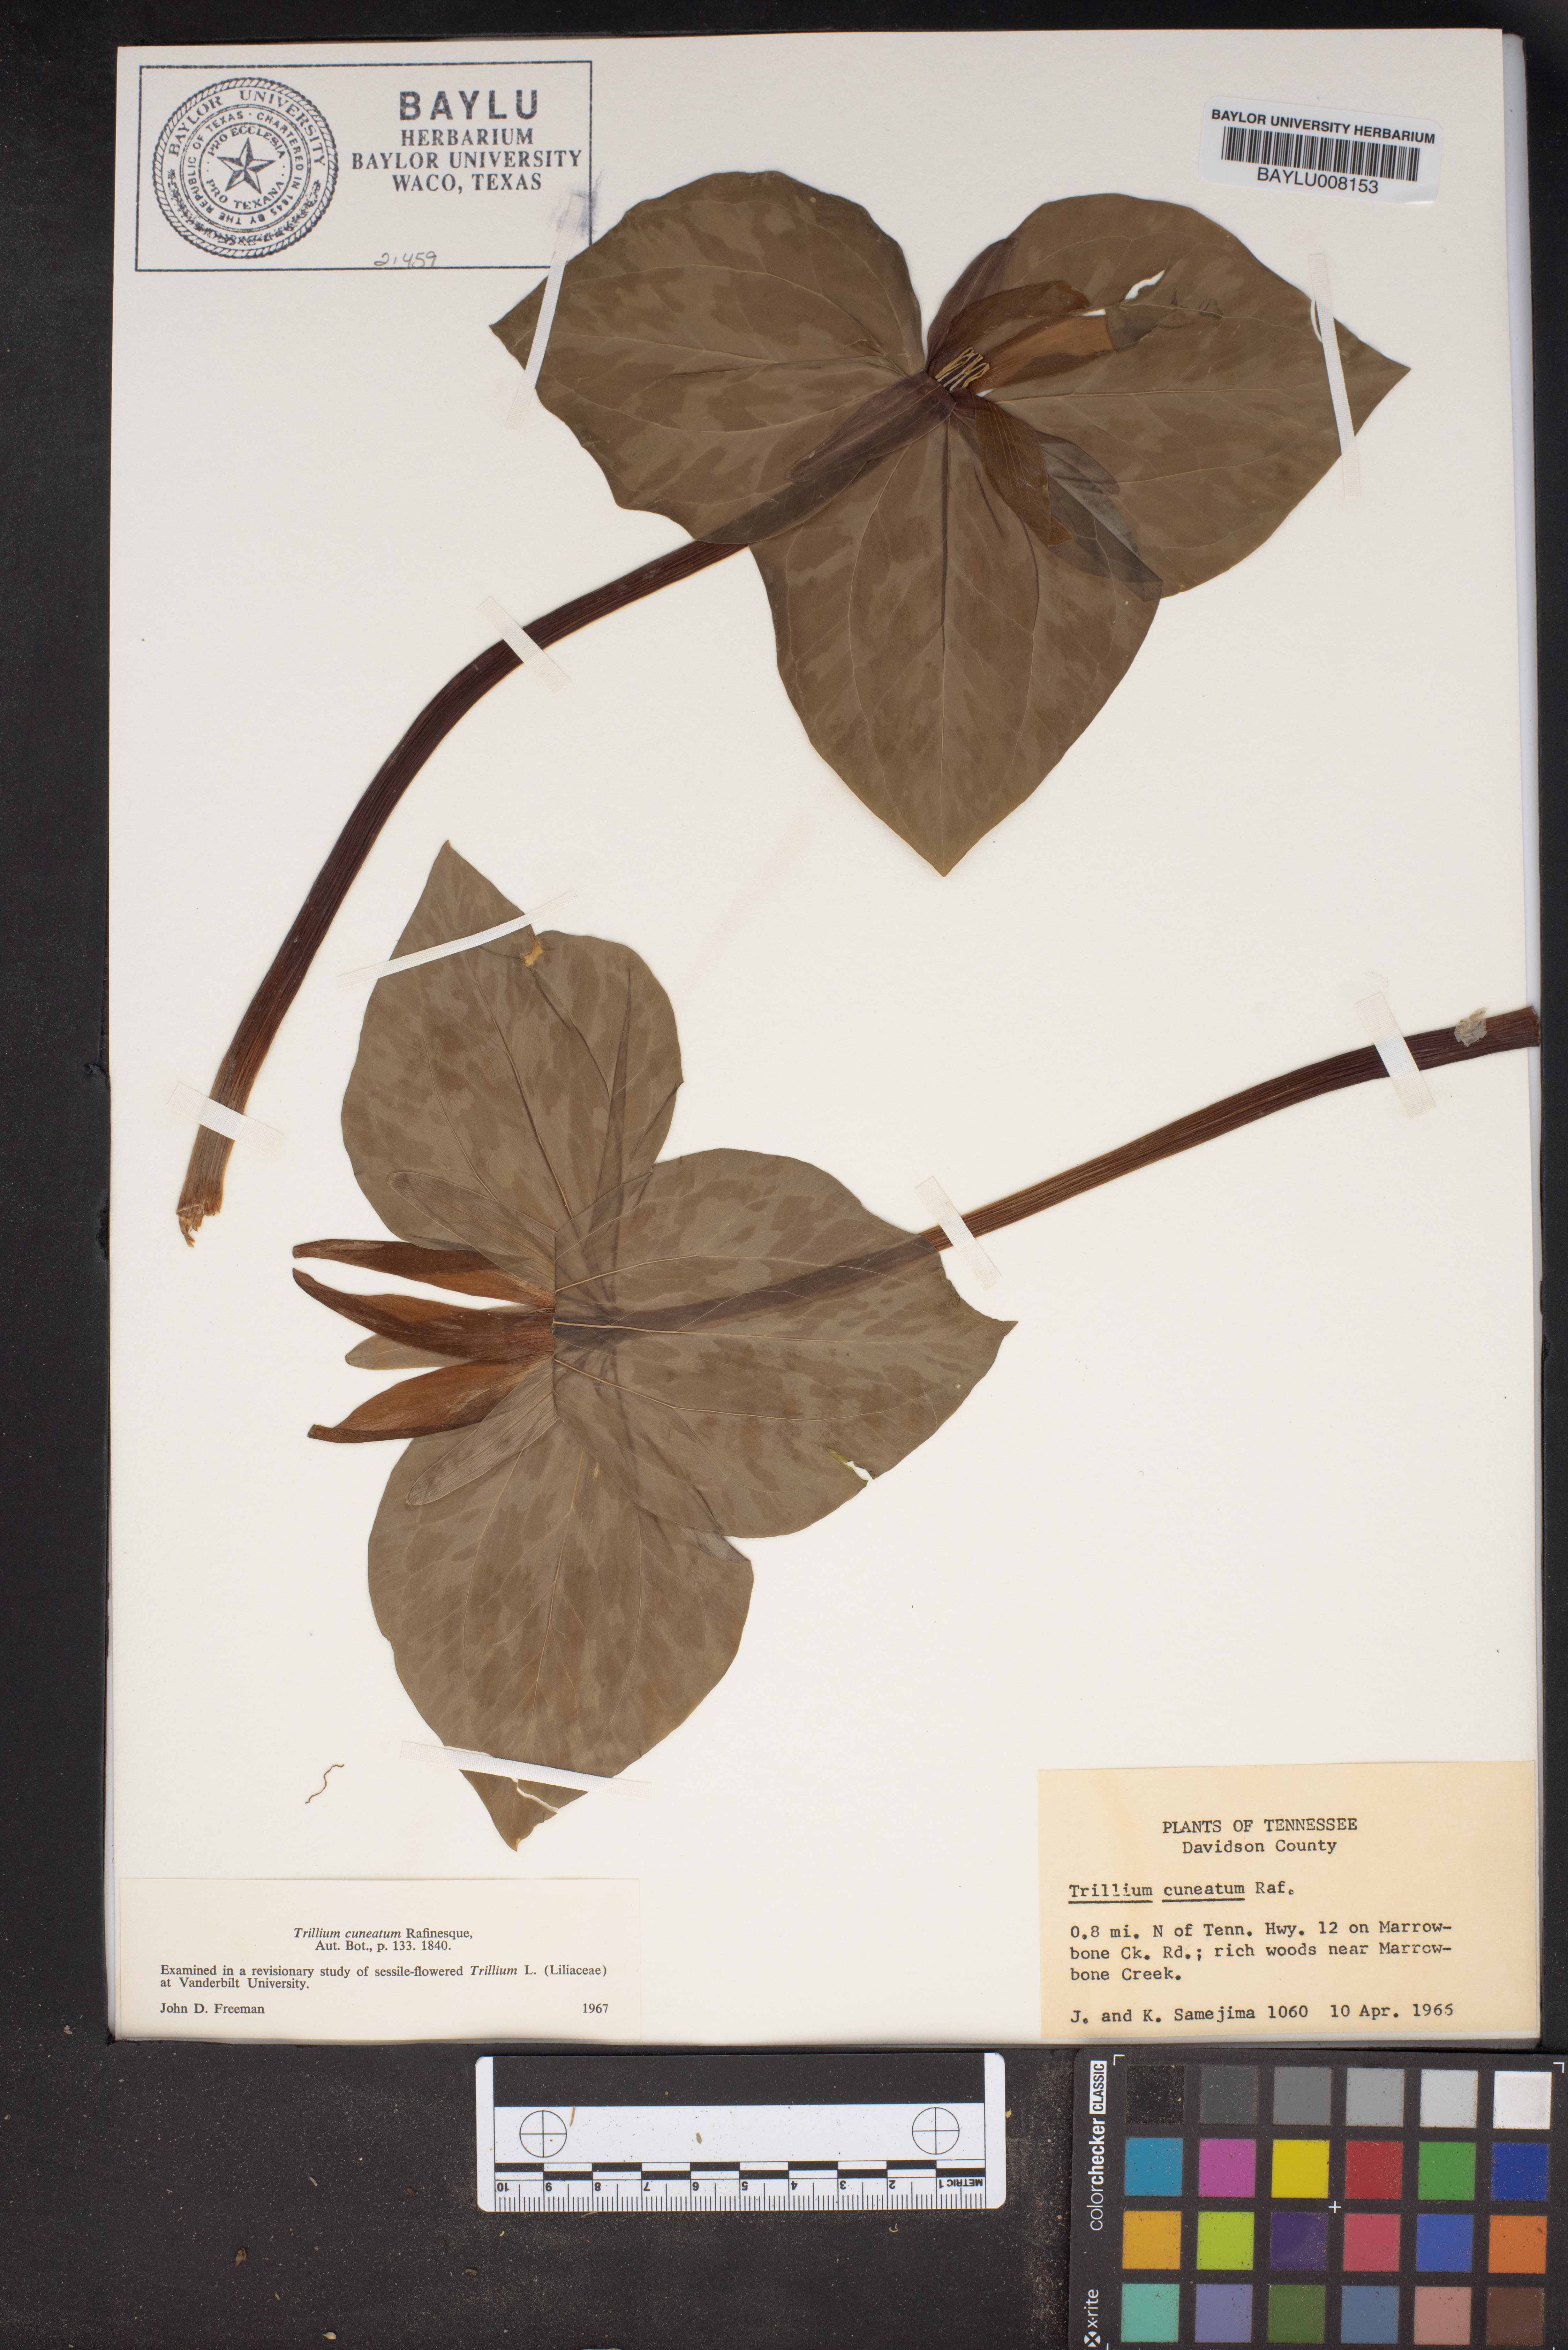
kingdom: Plantae
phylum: Tracheophyta
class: Liliopsida
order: Liliales
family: Melanthiaceae
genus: Trillium
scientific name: Trillium cuneatum
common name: Cuneate trillium
